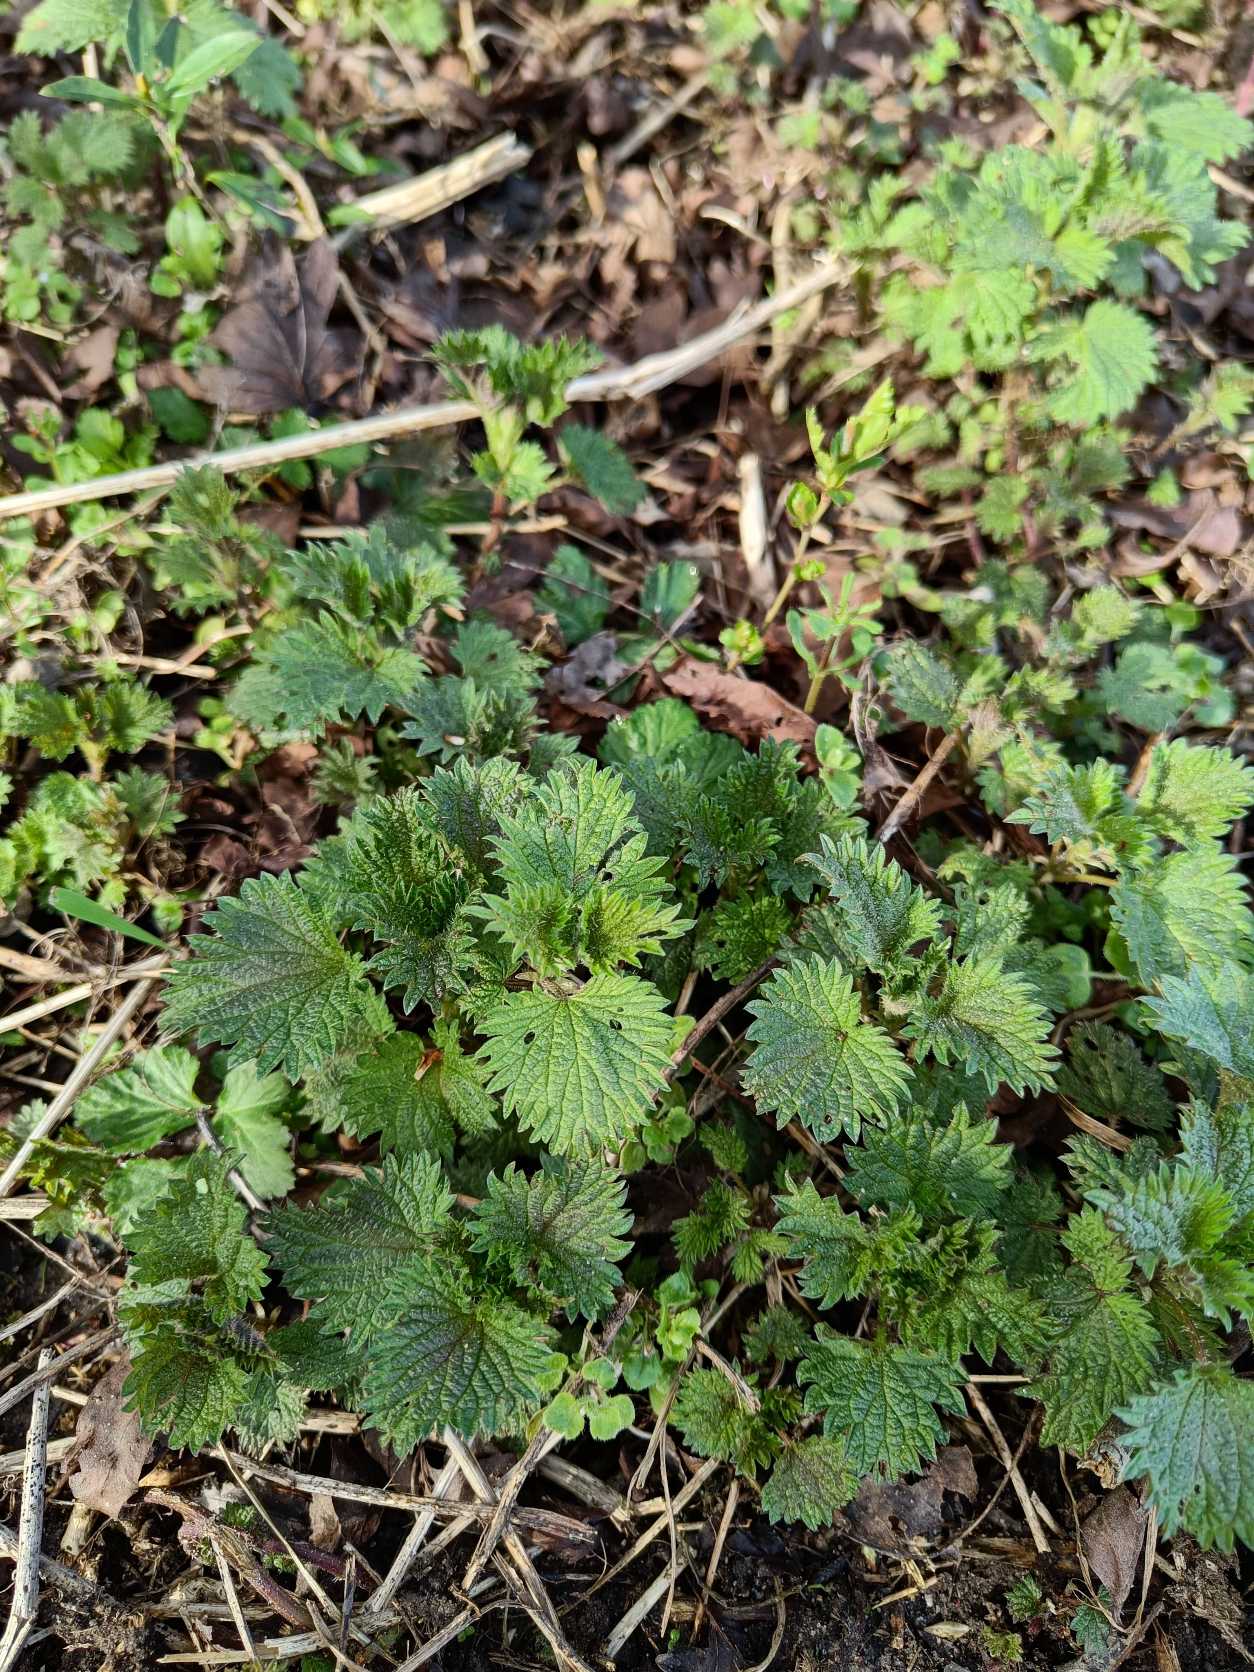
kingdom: Plantae
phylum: Tracheophyta
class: Magnoliopsida
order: Rosales
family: Urticaceae
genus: Urtica
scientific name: Urtica dioica
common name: Stor nælde
